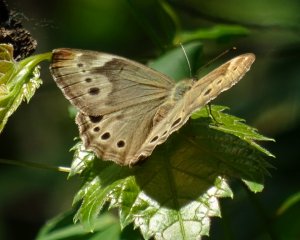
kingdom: Animalia
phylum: Arthropoda
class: Insecta
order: Lepidoptera
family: Nymphalidae
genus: Lethe
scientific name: Lethe anthedon
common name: Northern Pearly-Eye
